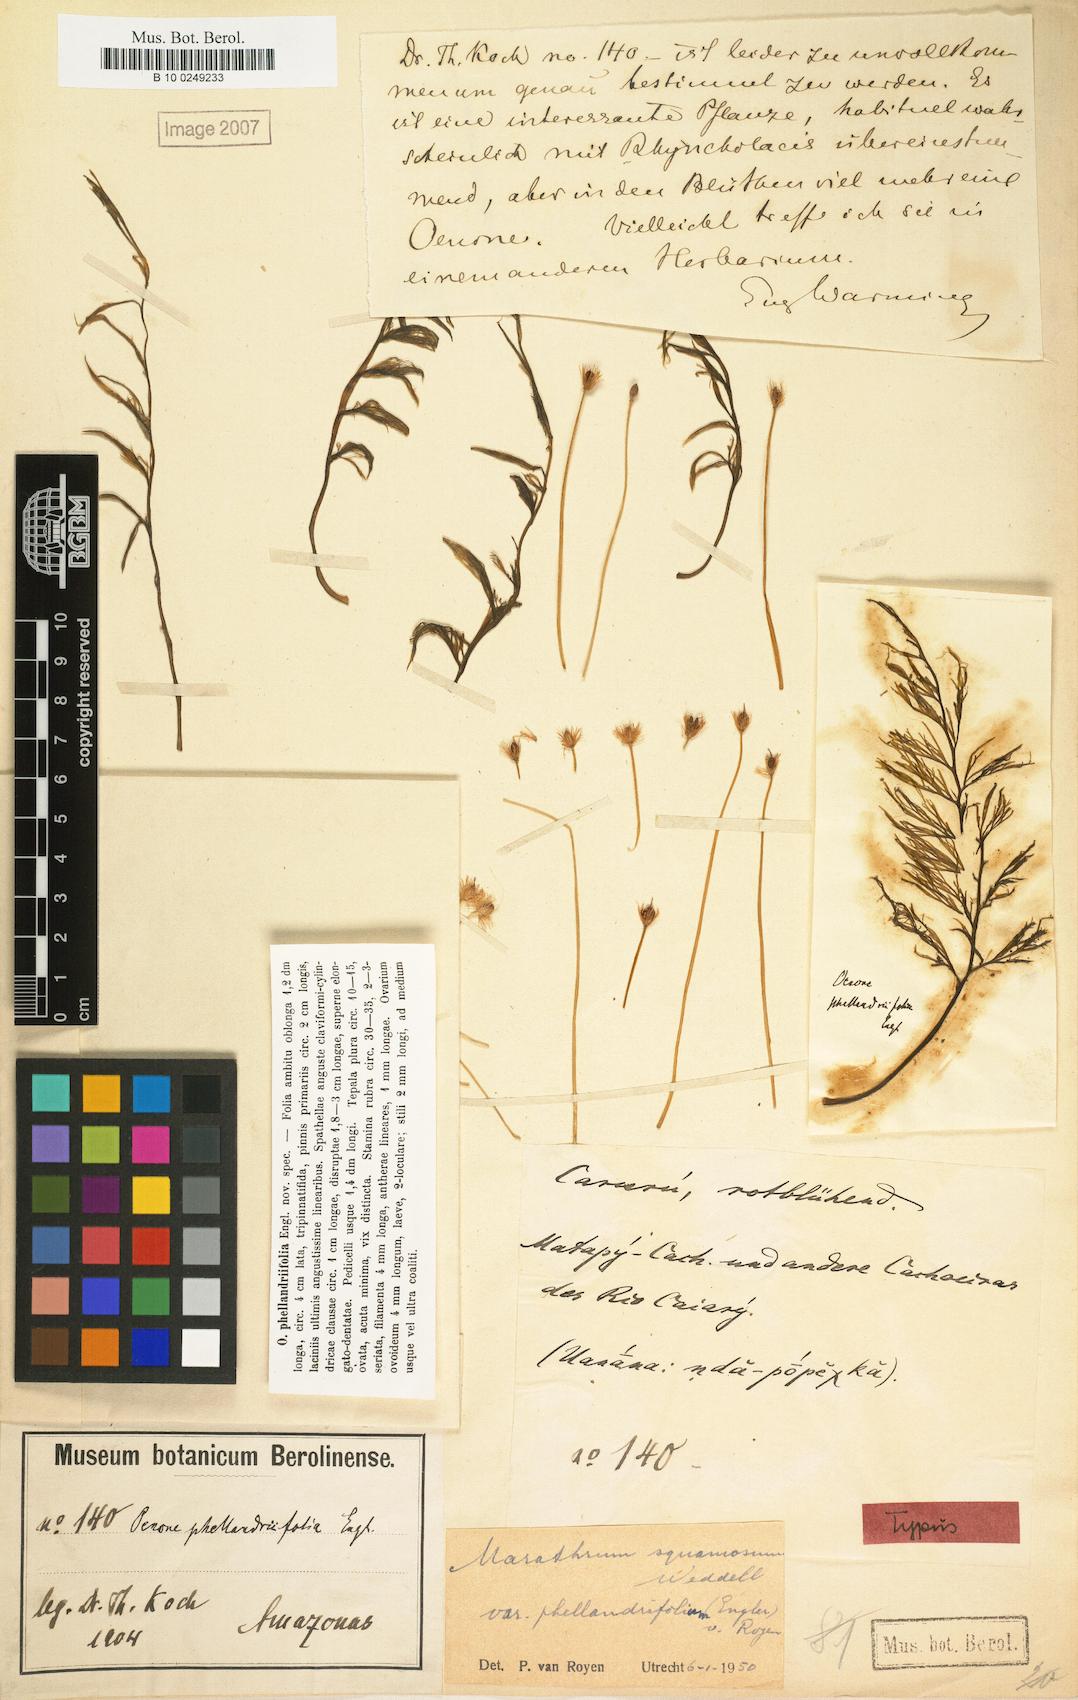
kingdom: Plantae
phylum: Tracheophyta
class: Magnoliopsida
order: Malpighiales
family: Podostemaceae
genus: Rhyncholacis
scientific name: Rhyncholacis squamosa
